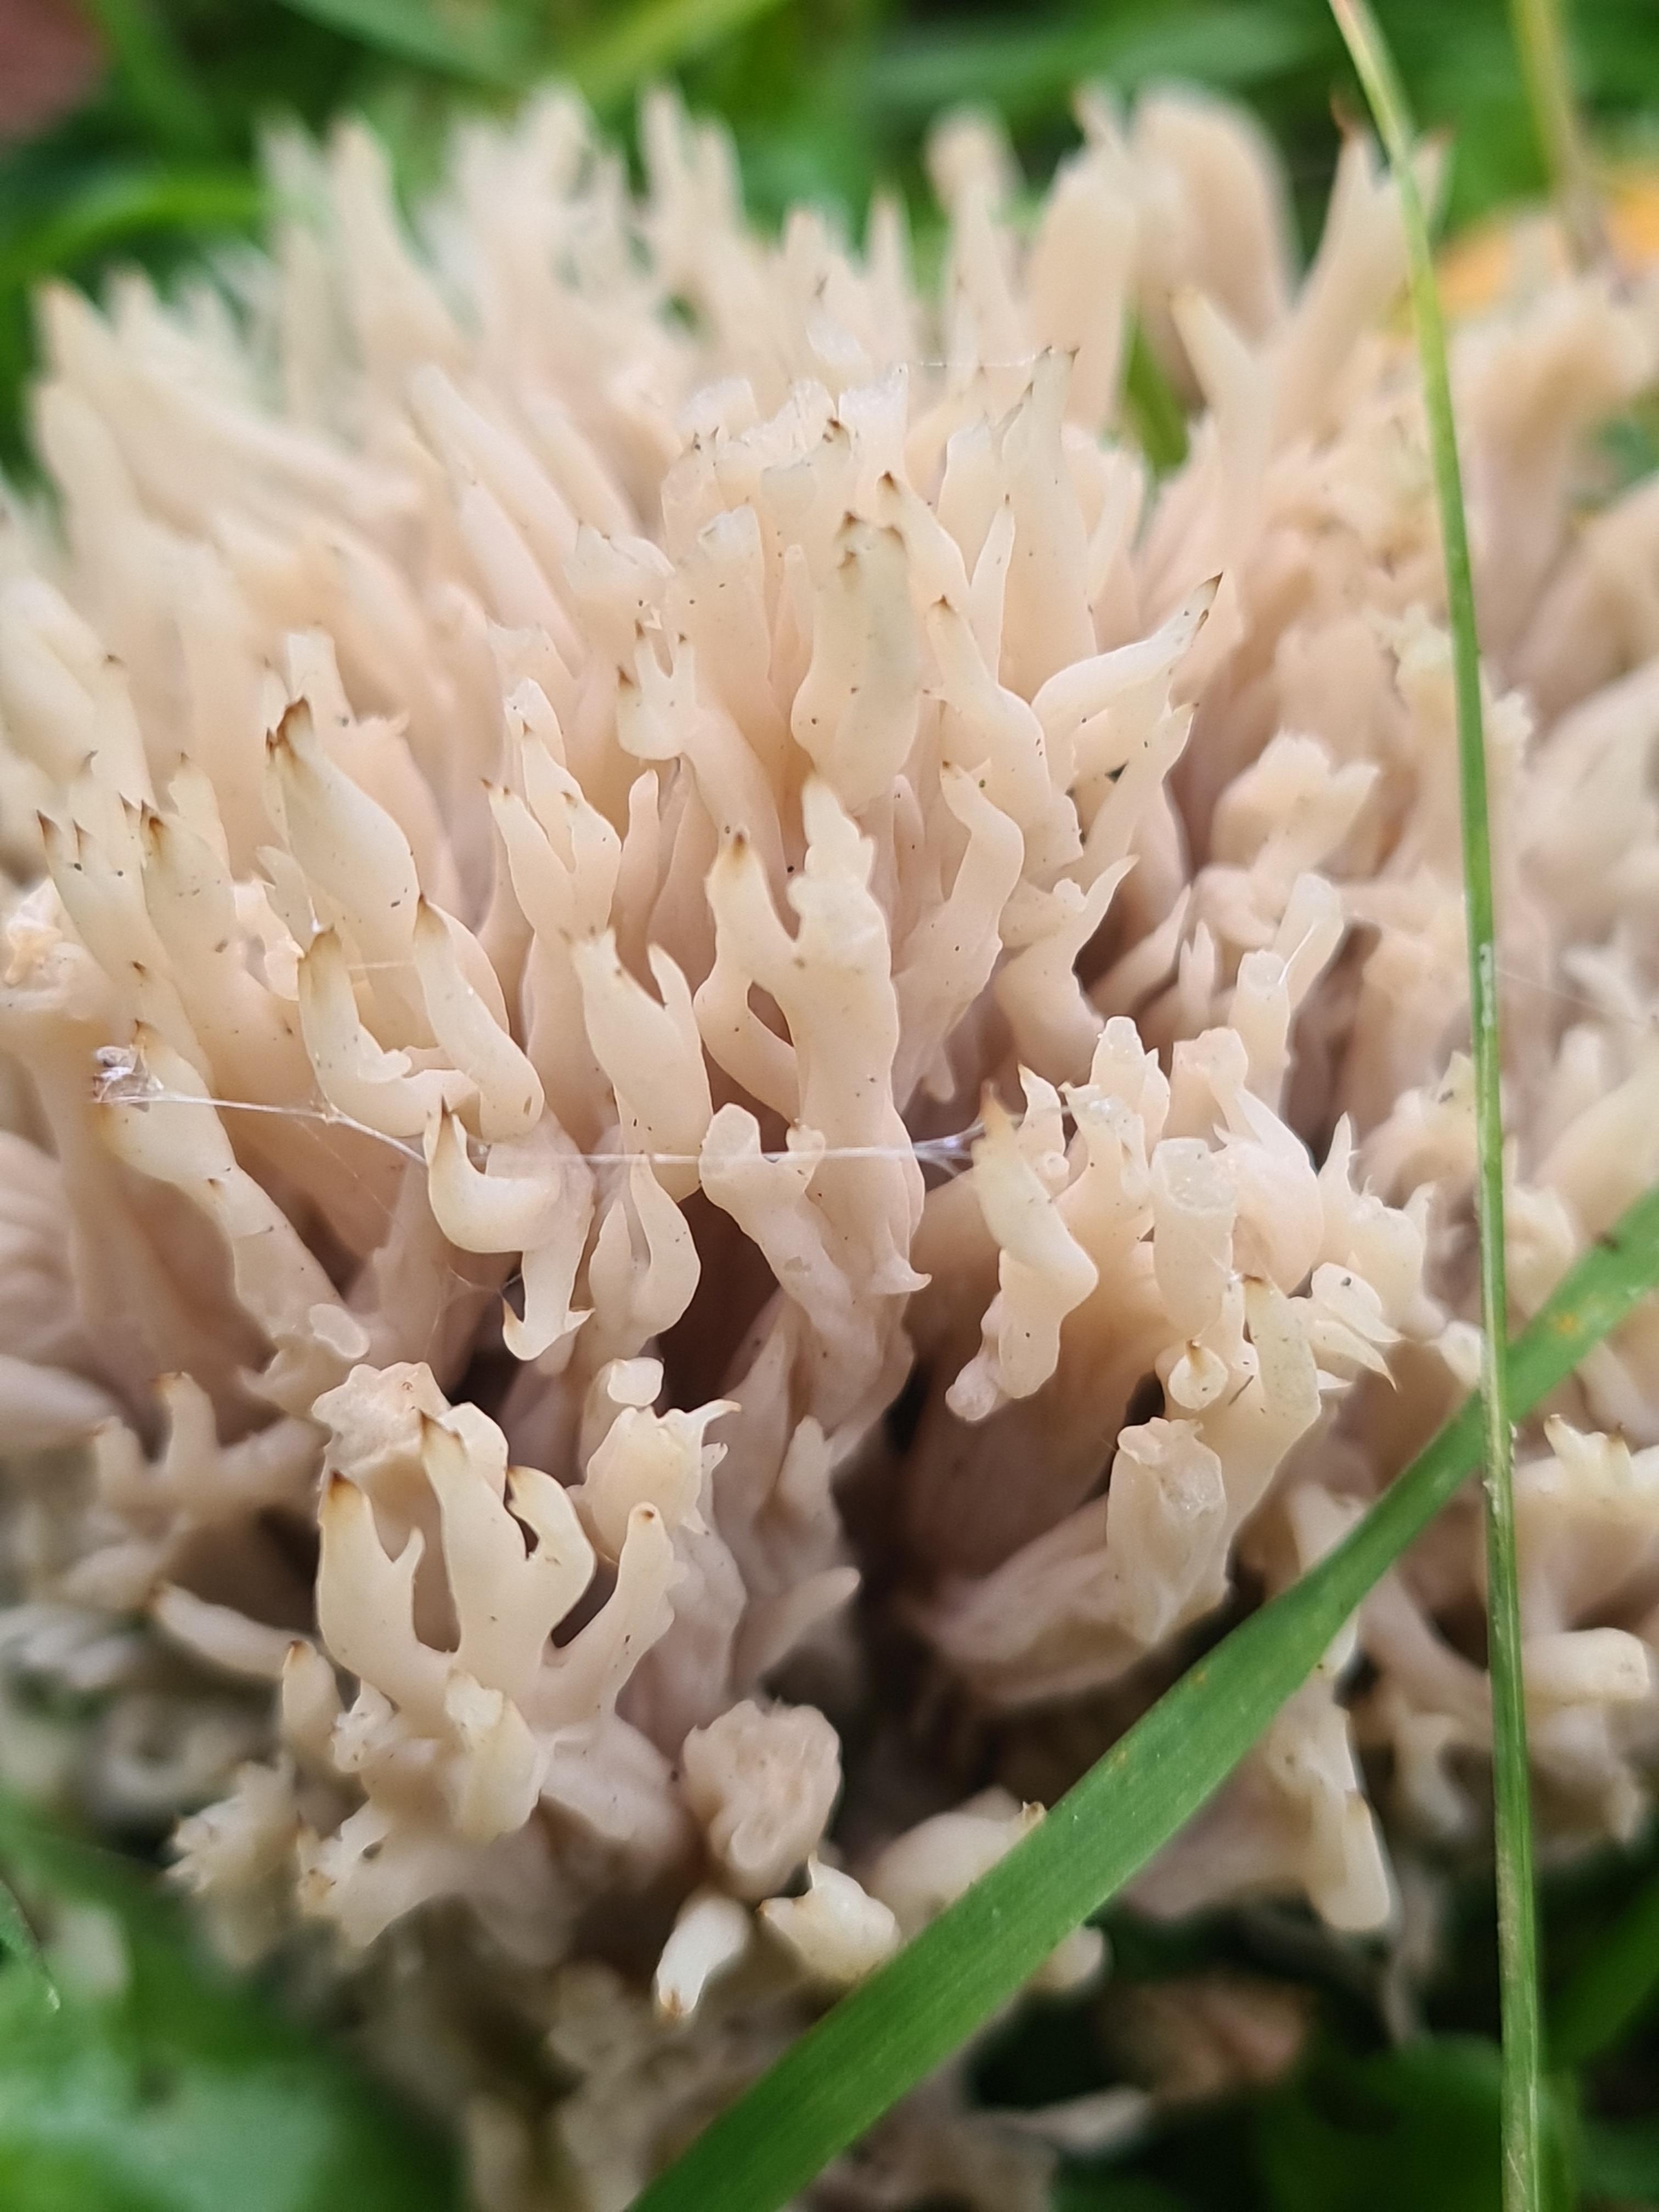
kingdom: Fungi
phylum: Basidiomycota
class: Agaricomycetes
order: Cantharellales
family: Hydnaceae
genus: Clavulina
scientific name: Clavulina
